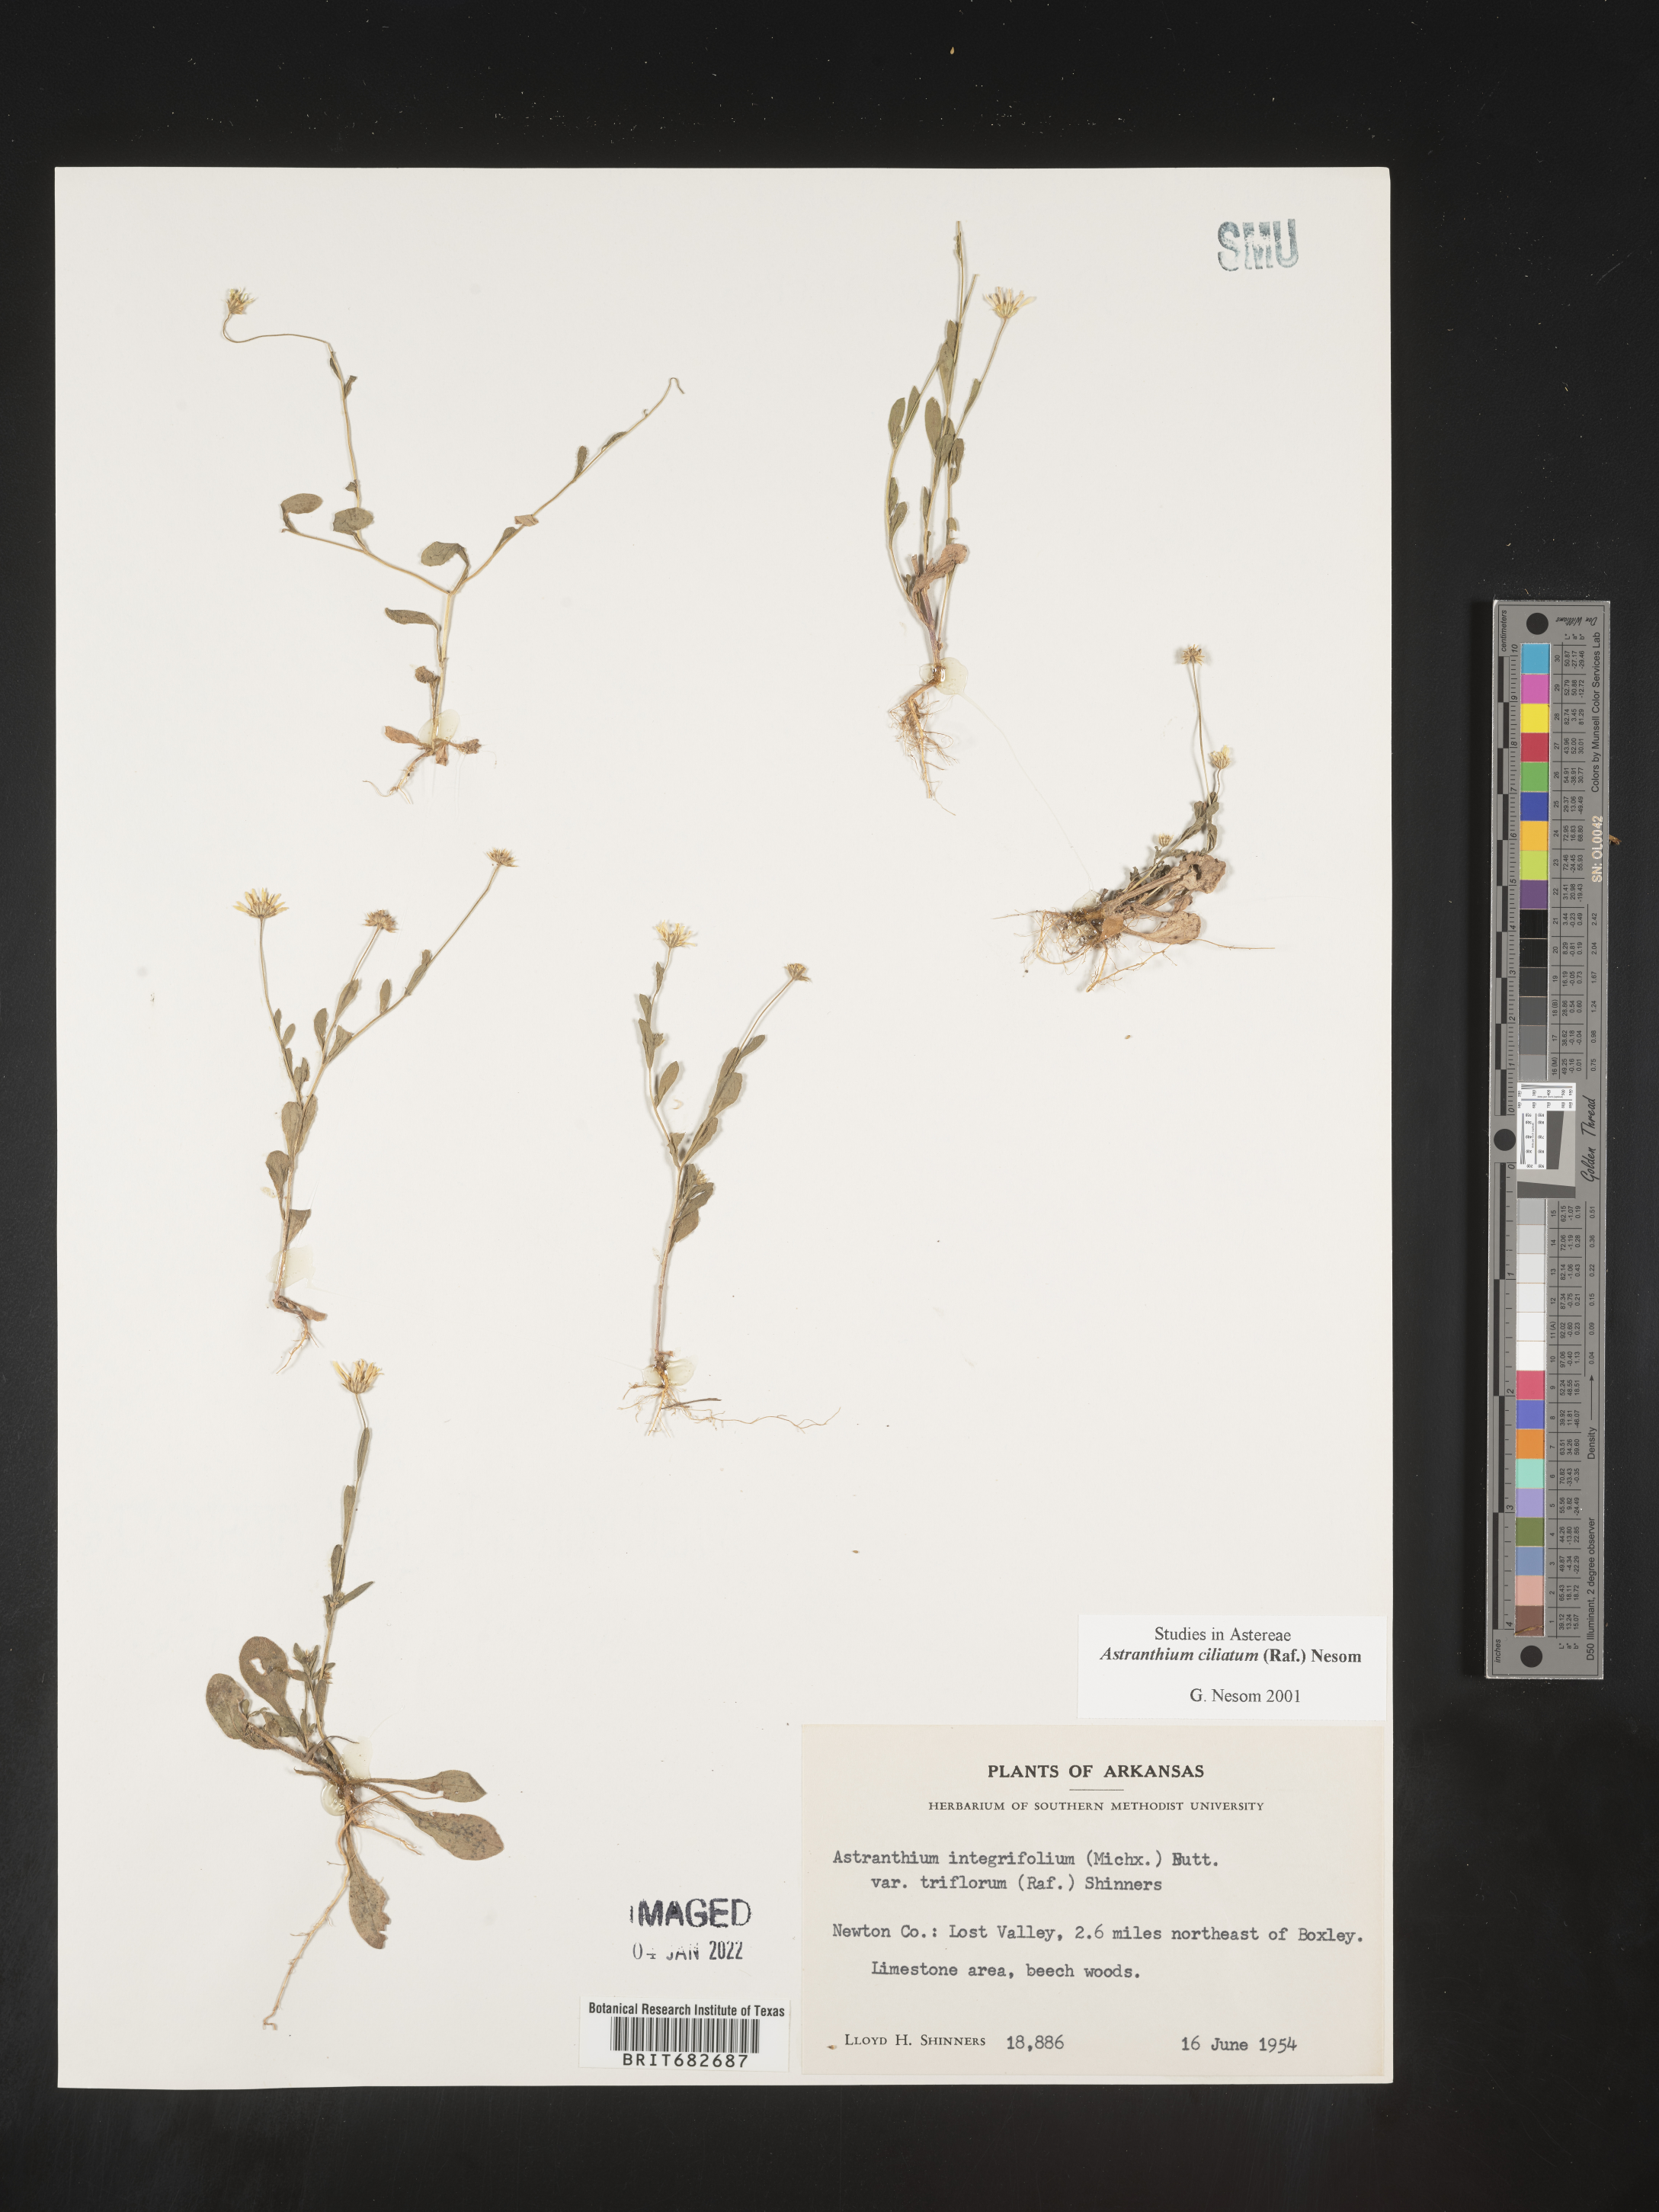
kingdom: Plantae
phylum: Tracheophyta
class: Magnoliopsida
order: Asterales
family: Asteraceae
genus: Astranthium
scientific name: Astranthium ciliatum
